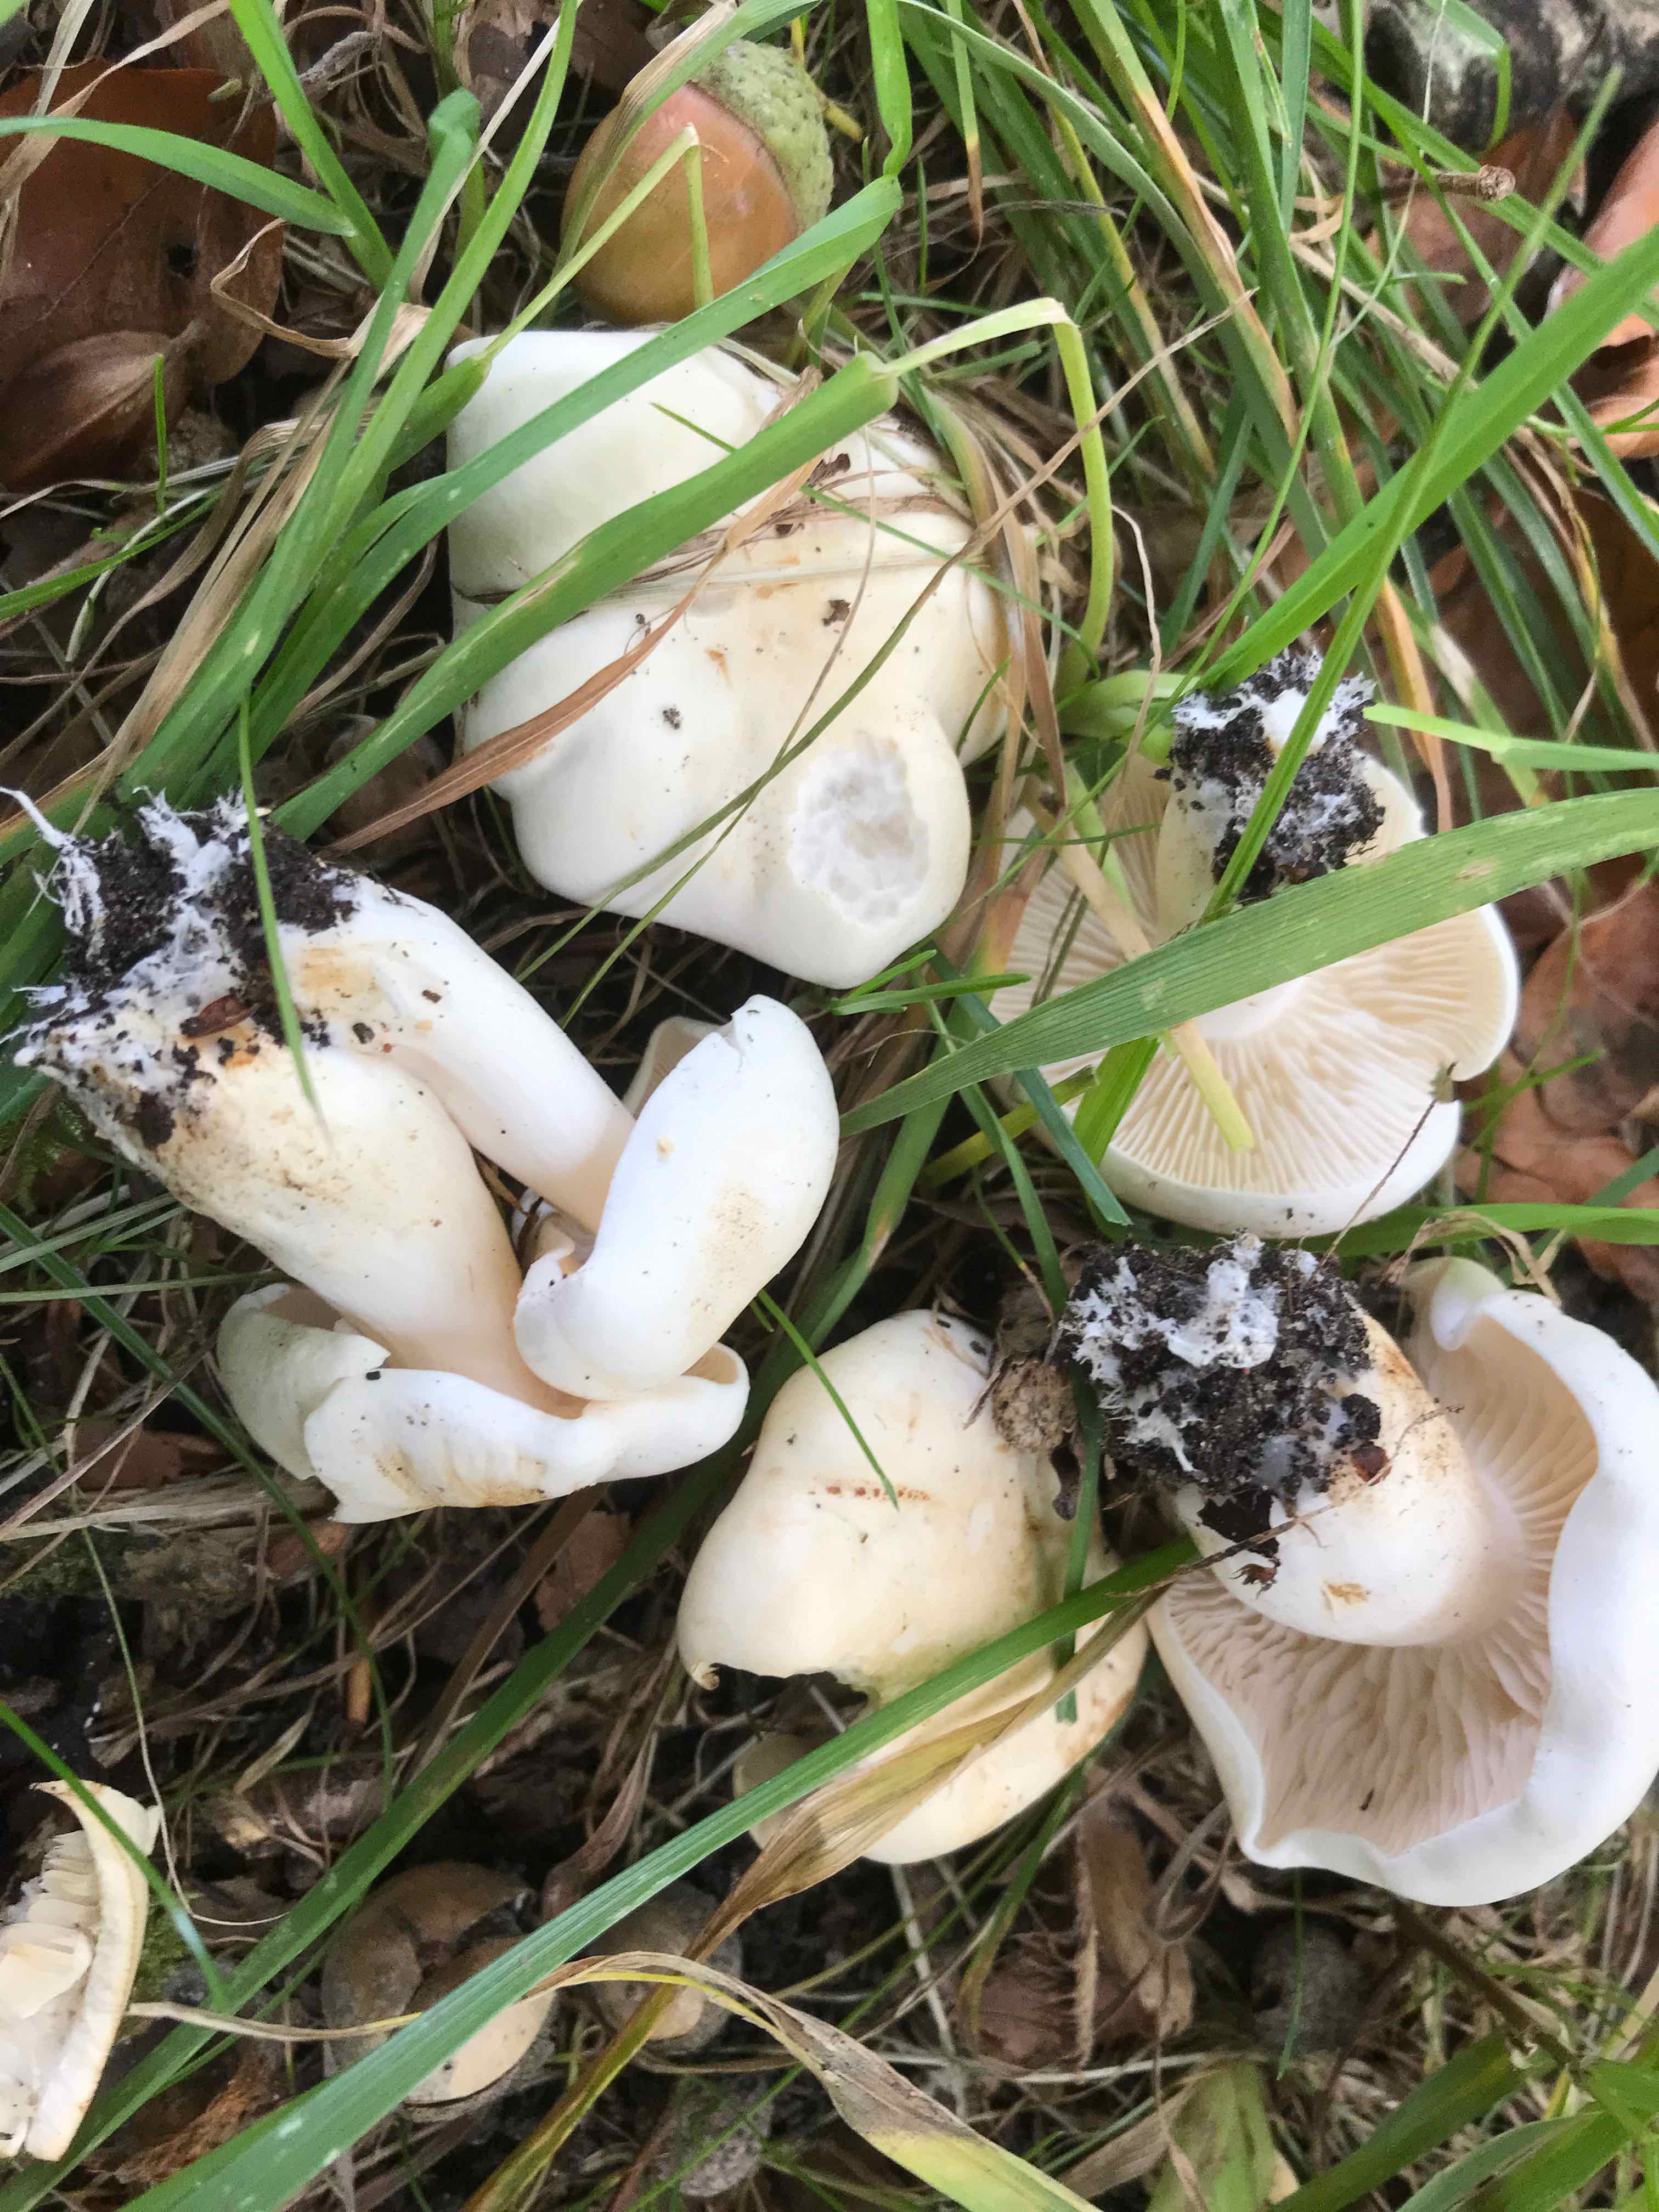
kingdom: Fungi
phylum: Basidiomycota
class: Agaricomycetes
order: Agaricales
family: Tricholomataceae
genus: Tricholoma
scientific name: Tricholoma album
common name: honning-ridderhat
